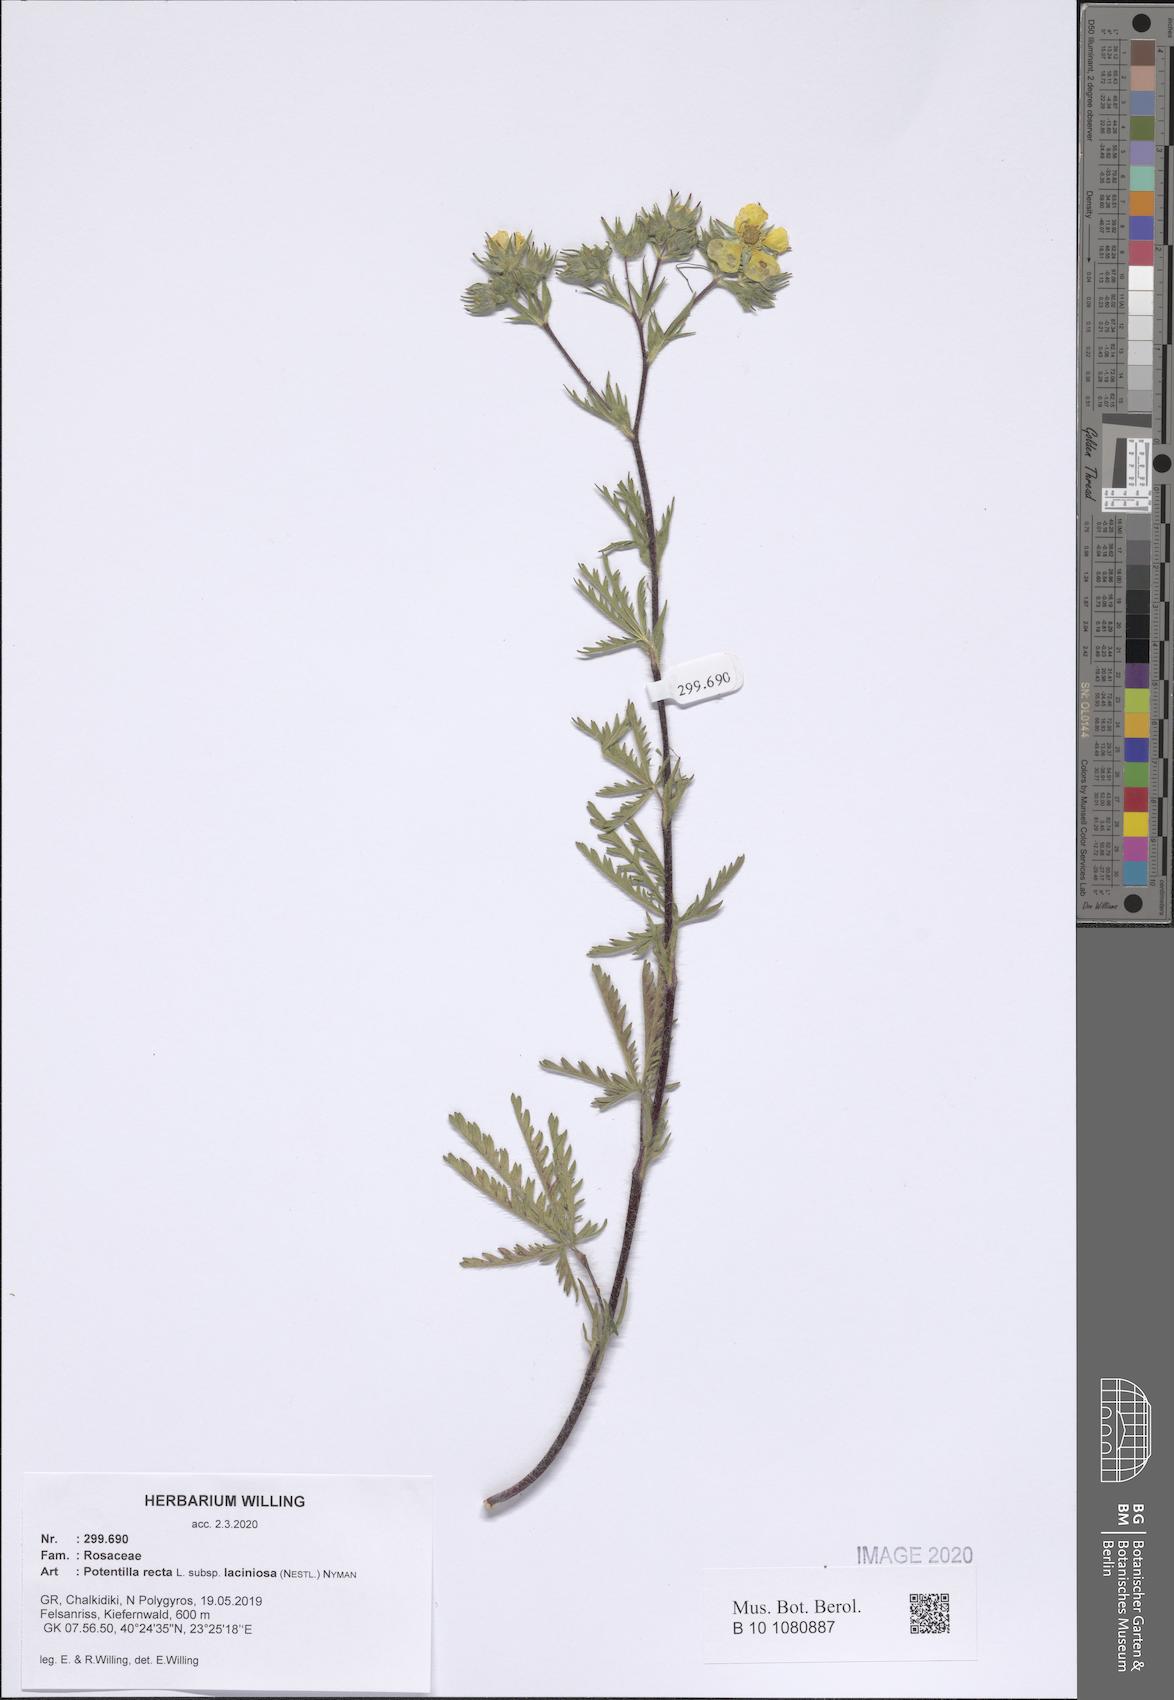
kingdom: Plantae
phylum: Tracheophyta
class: Magnoliopsida
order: Rosales
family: Rosaceae
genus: Potentilla
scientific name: Potentilla recta
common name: Sulphur cinquefoil
